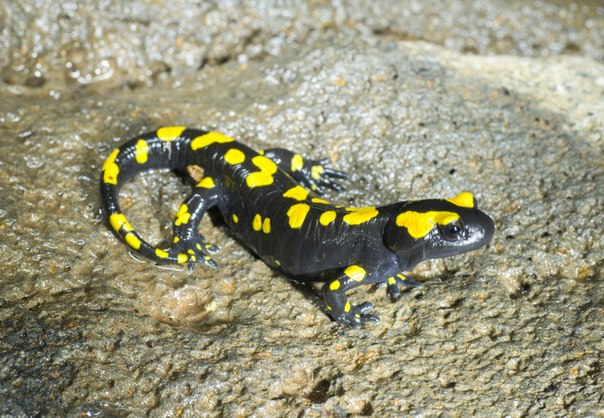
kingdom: Animalia
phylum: Chordata
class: Amphibia
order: Caudata
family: Salamandridae
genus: Salamandra
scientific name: Salamandra infraimmaculata
